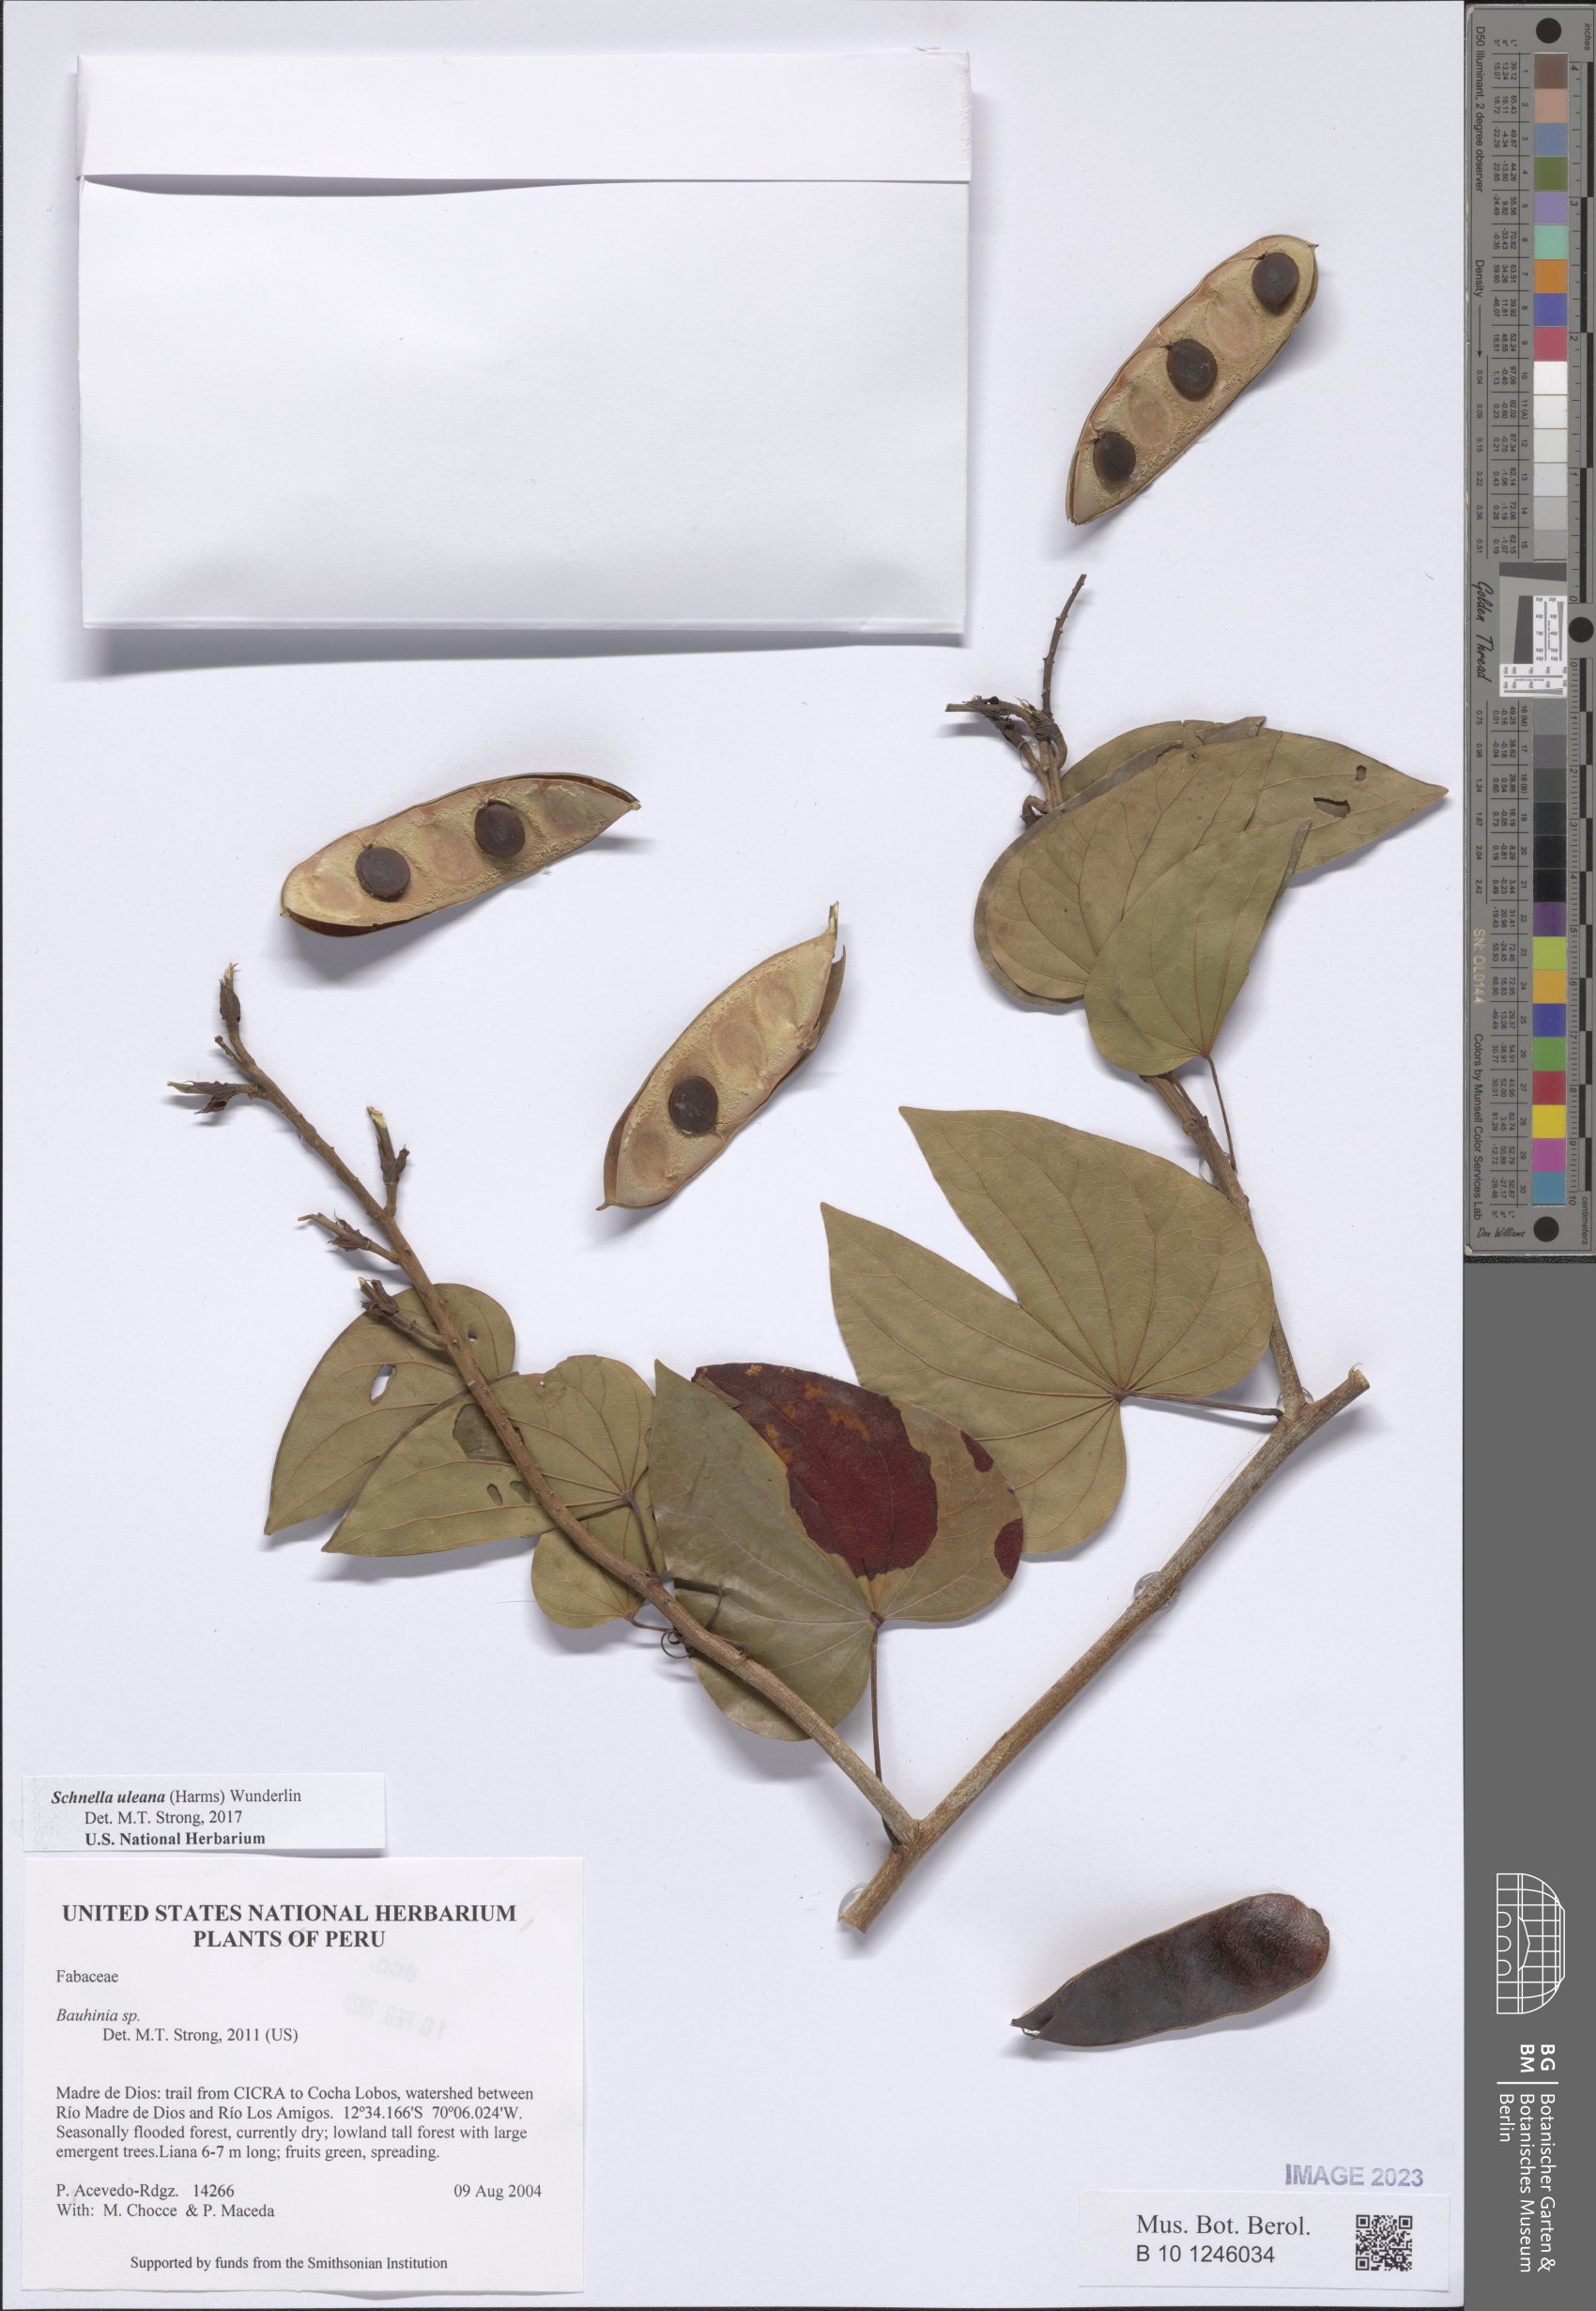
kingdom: Plantae
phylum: Tracheophyta
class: Magnoliopsida
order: Fabales
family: Fabaceae
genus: Schnella
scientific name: Schnella uleana
